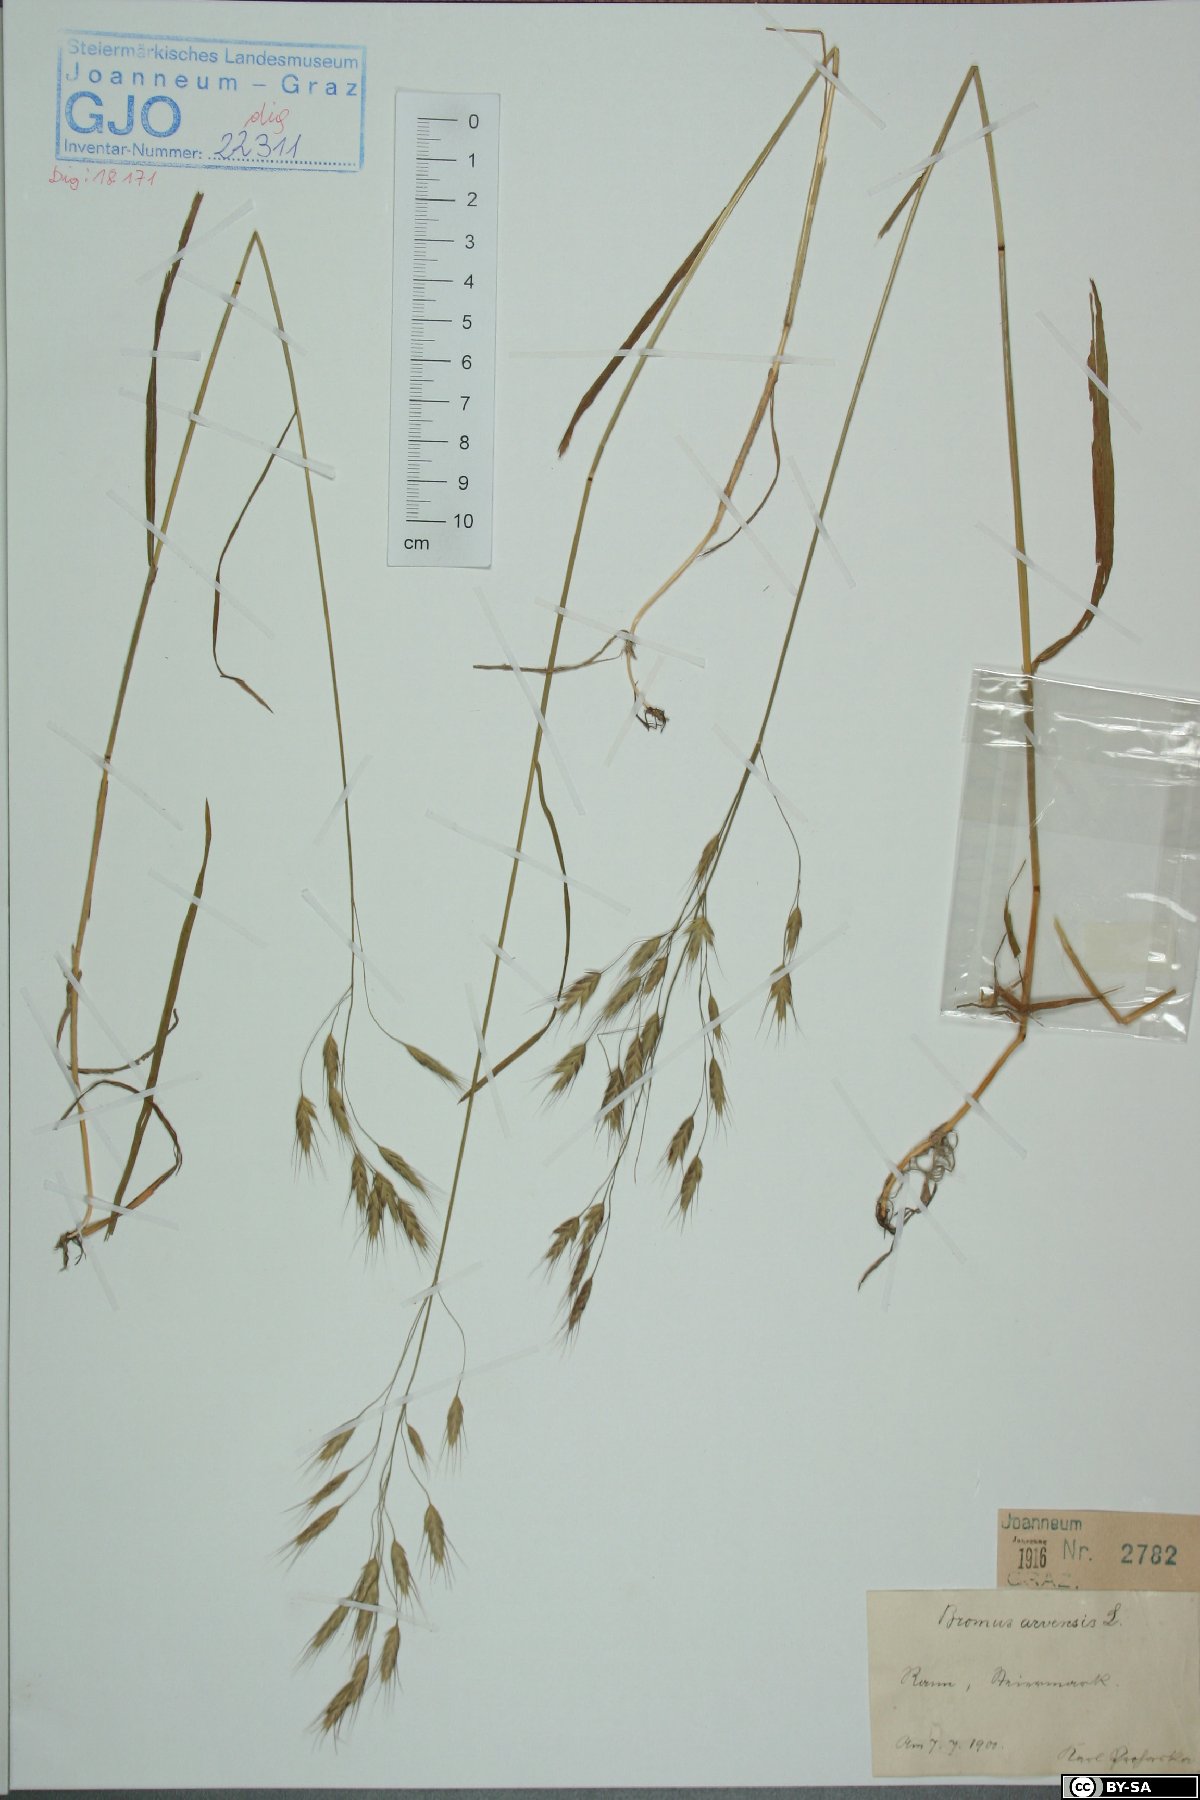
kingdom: Plantae
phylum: Tracheophyta
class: Liliopsida
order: Poales
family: Poaceae
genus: Bromus
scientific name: Bromus arvensis
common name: Field brome
